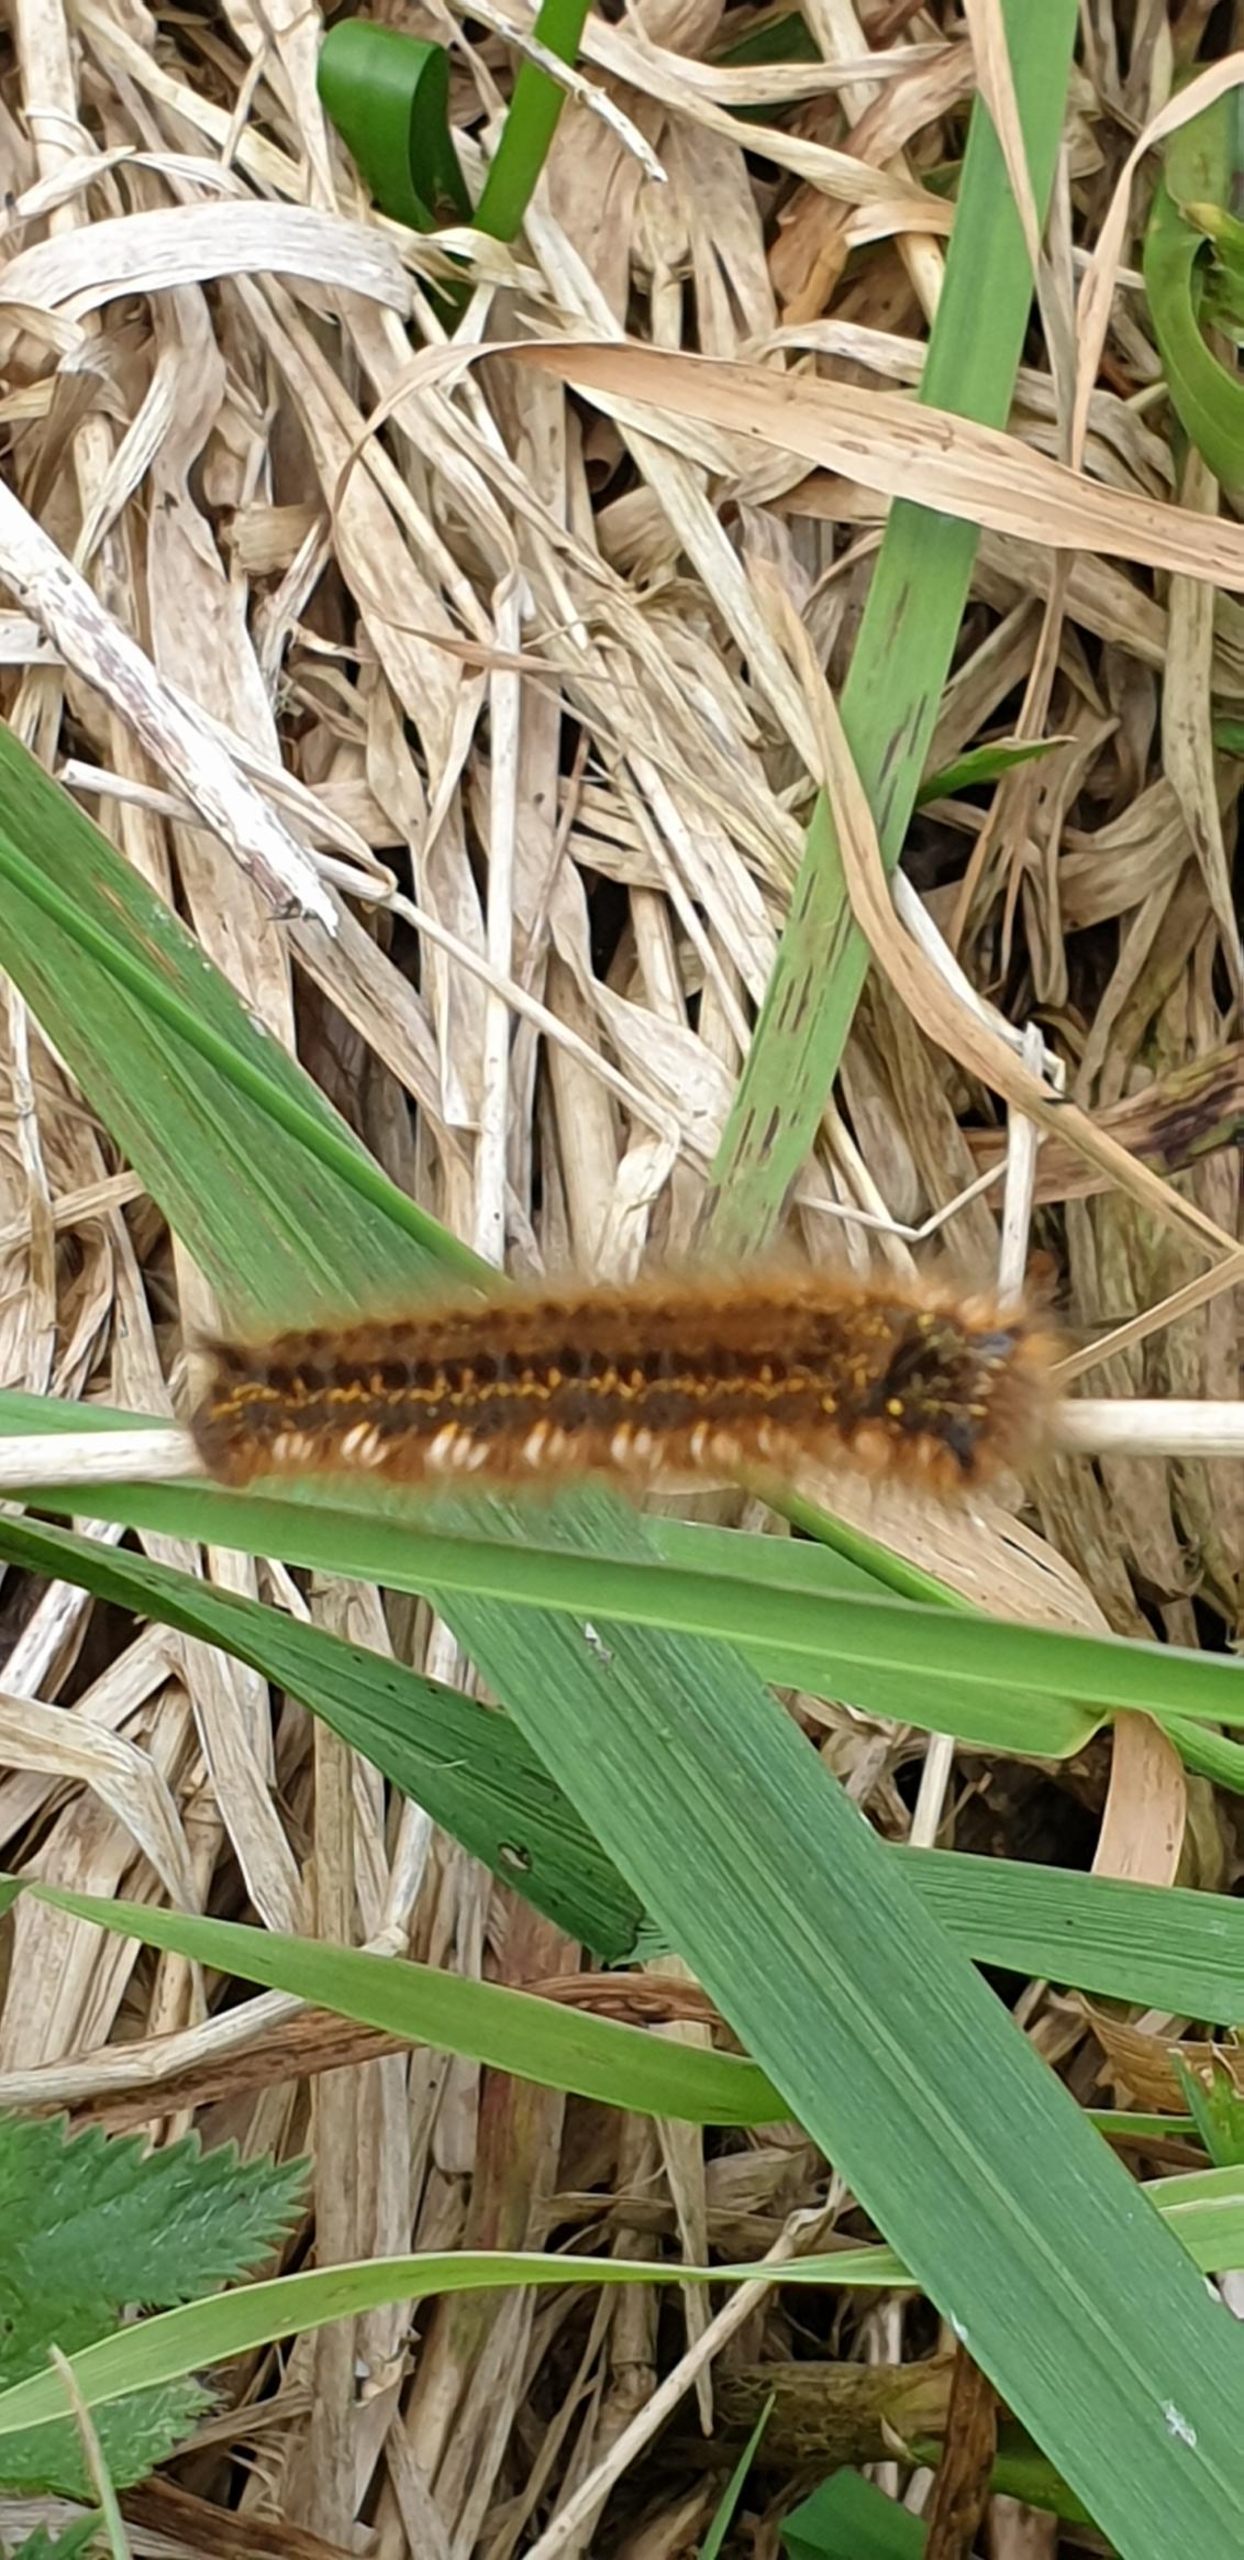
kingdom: Animalia
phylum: Arthropoda
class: Insecta
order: Lepidoptera
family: Lasiocampidae
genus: Euthrix
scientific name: Euthrix potatoria
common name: Græsspinder
